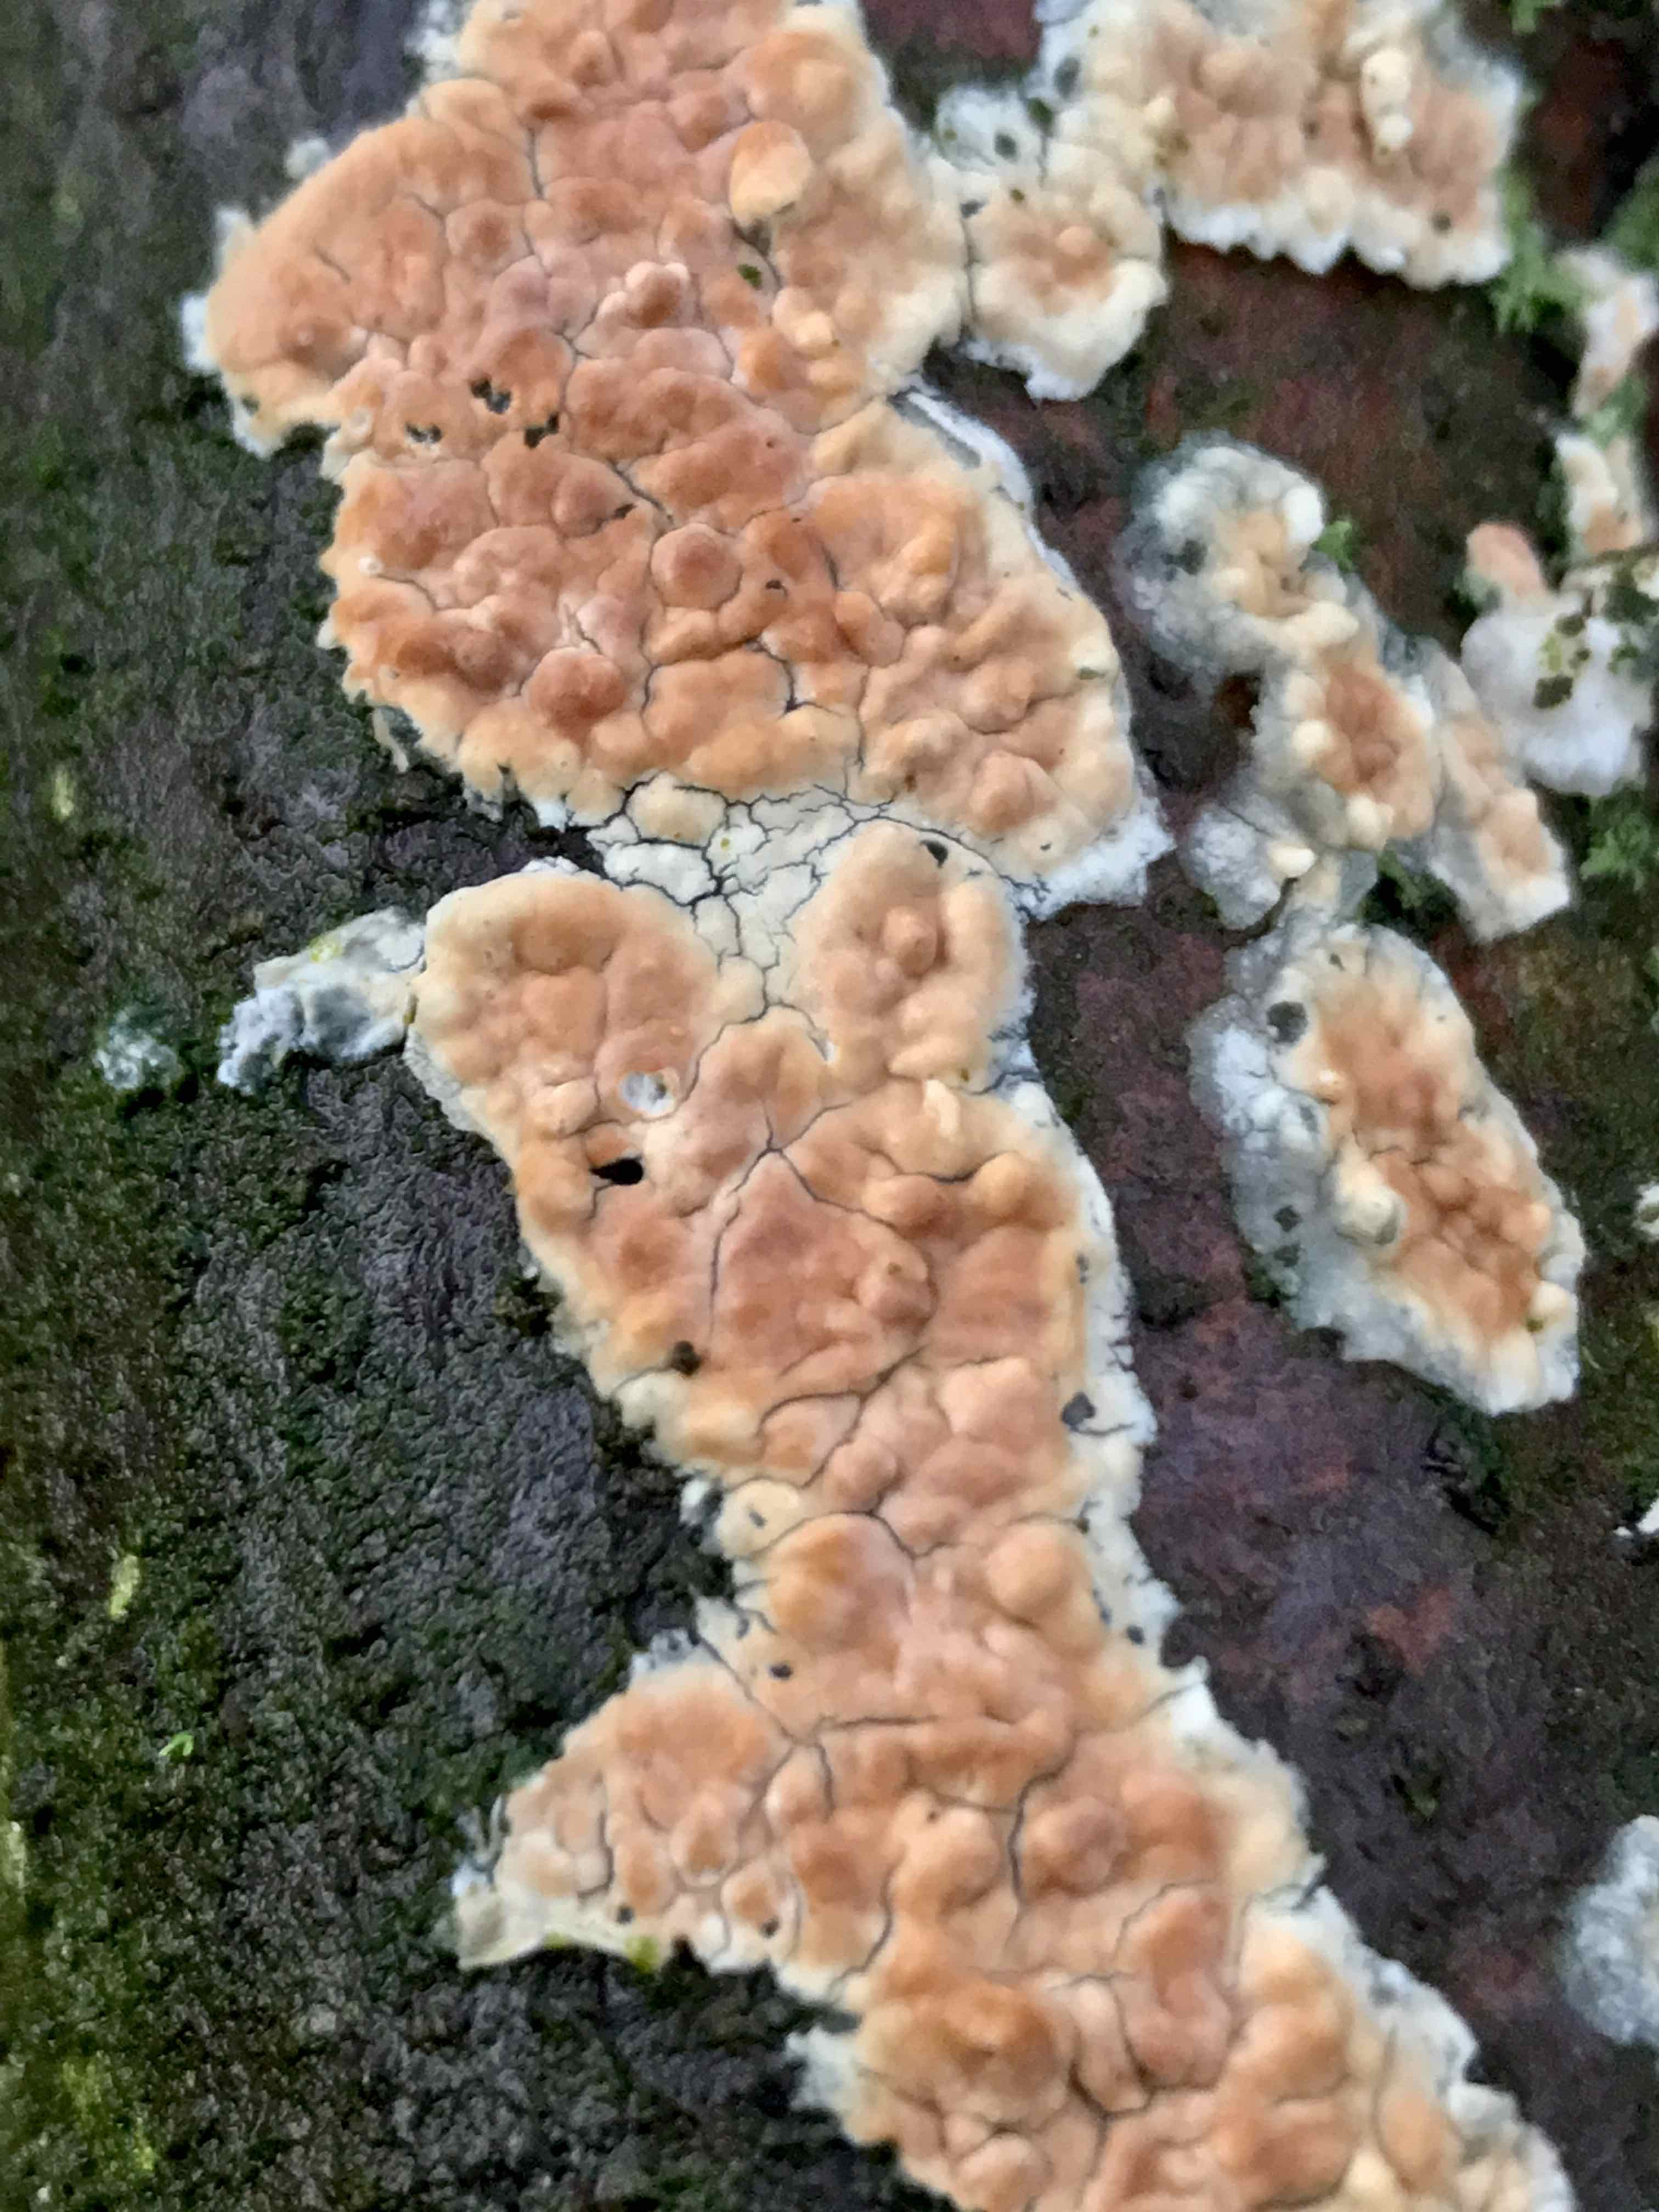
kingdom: Fungi
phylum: Basidiomycota
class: Agaricomycetes
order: Agaricales
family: Physalacriaceae
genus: Cylindrobasidium
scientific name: Cylindrobasidium evolvens
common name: sprækkehinde
